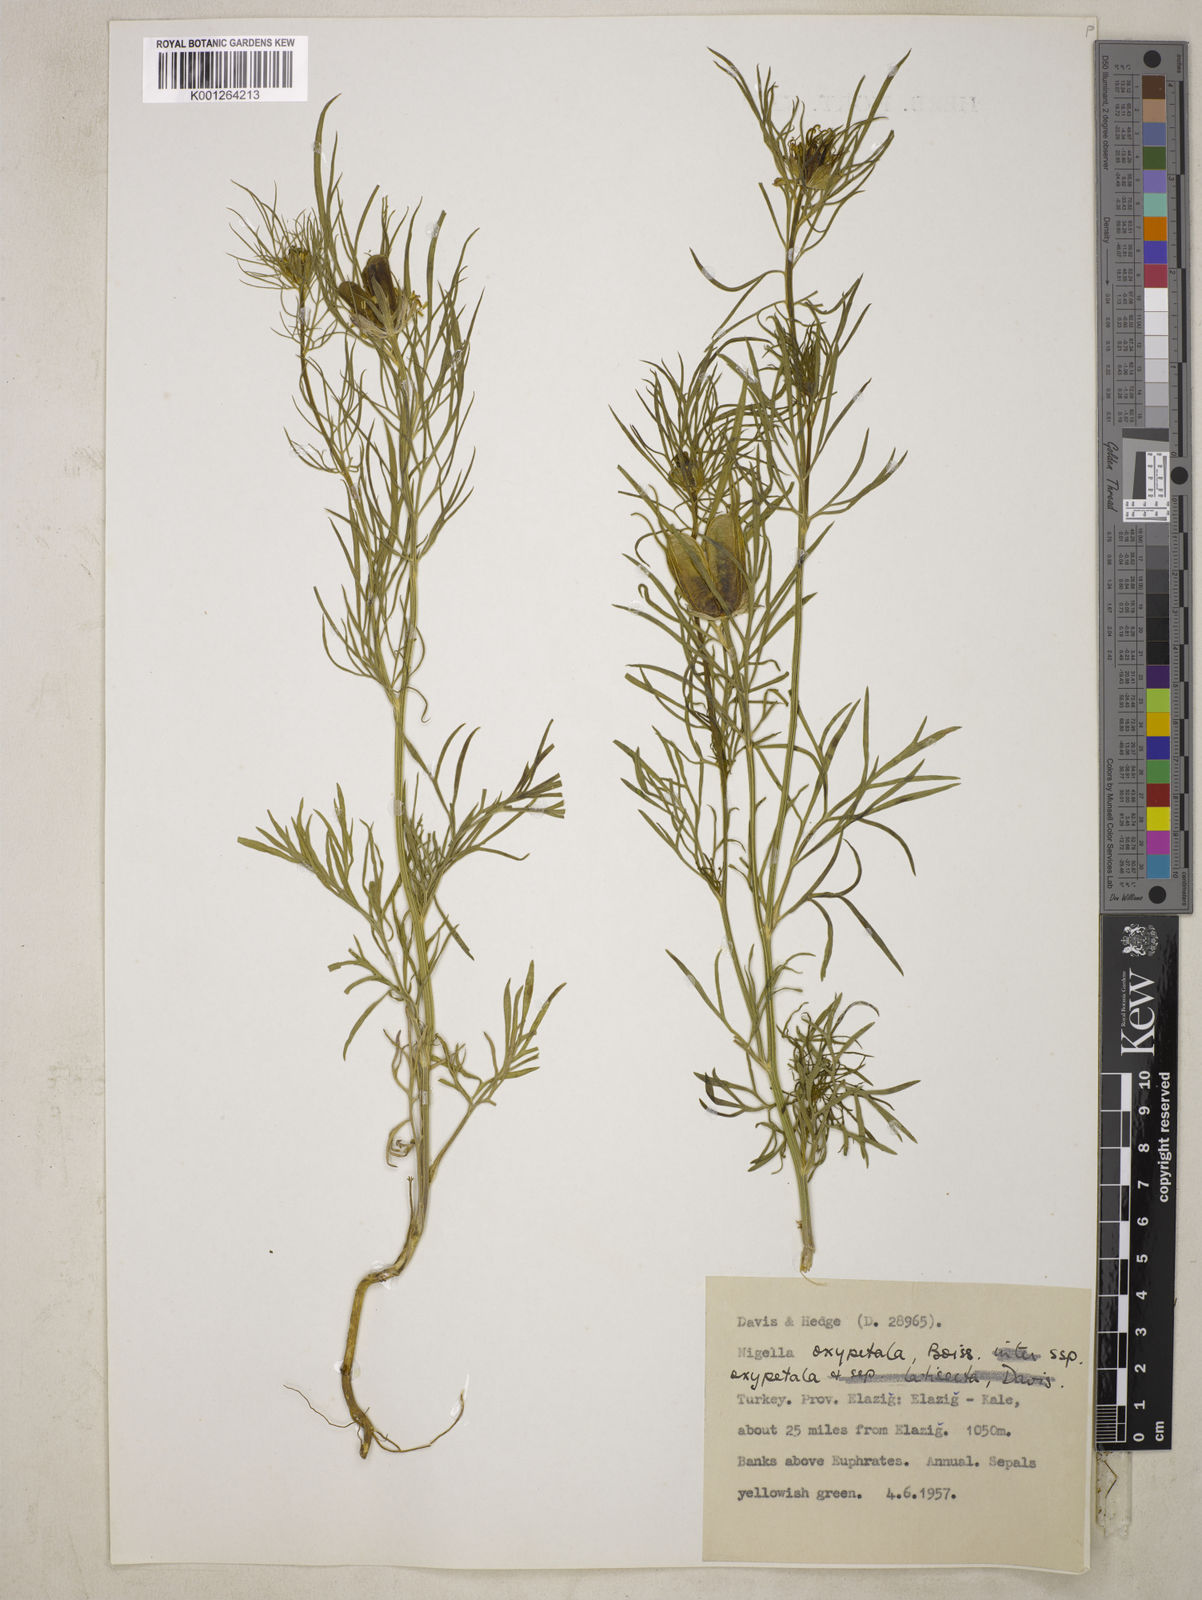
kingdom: Plantae
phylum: Tracheophyta
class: Magnoliopsida
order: Ranunculales
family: Ranunculaceae
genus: Nigella
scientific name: Nigella oxypetala
